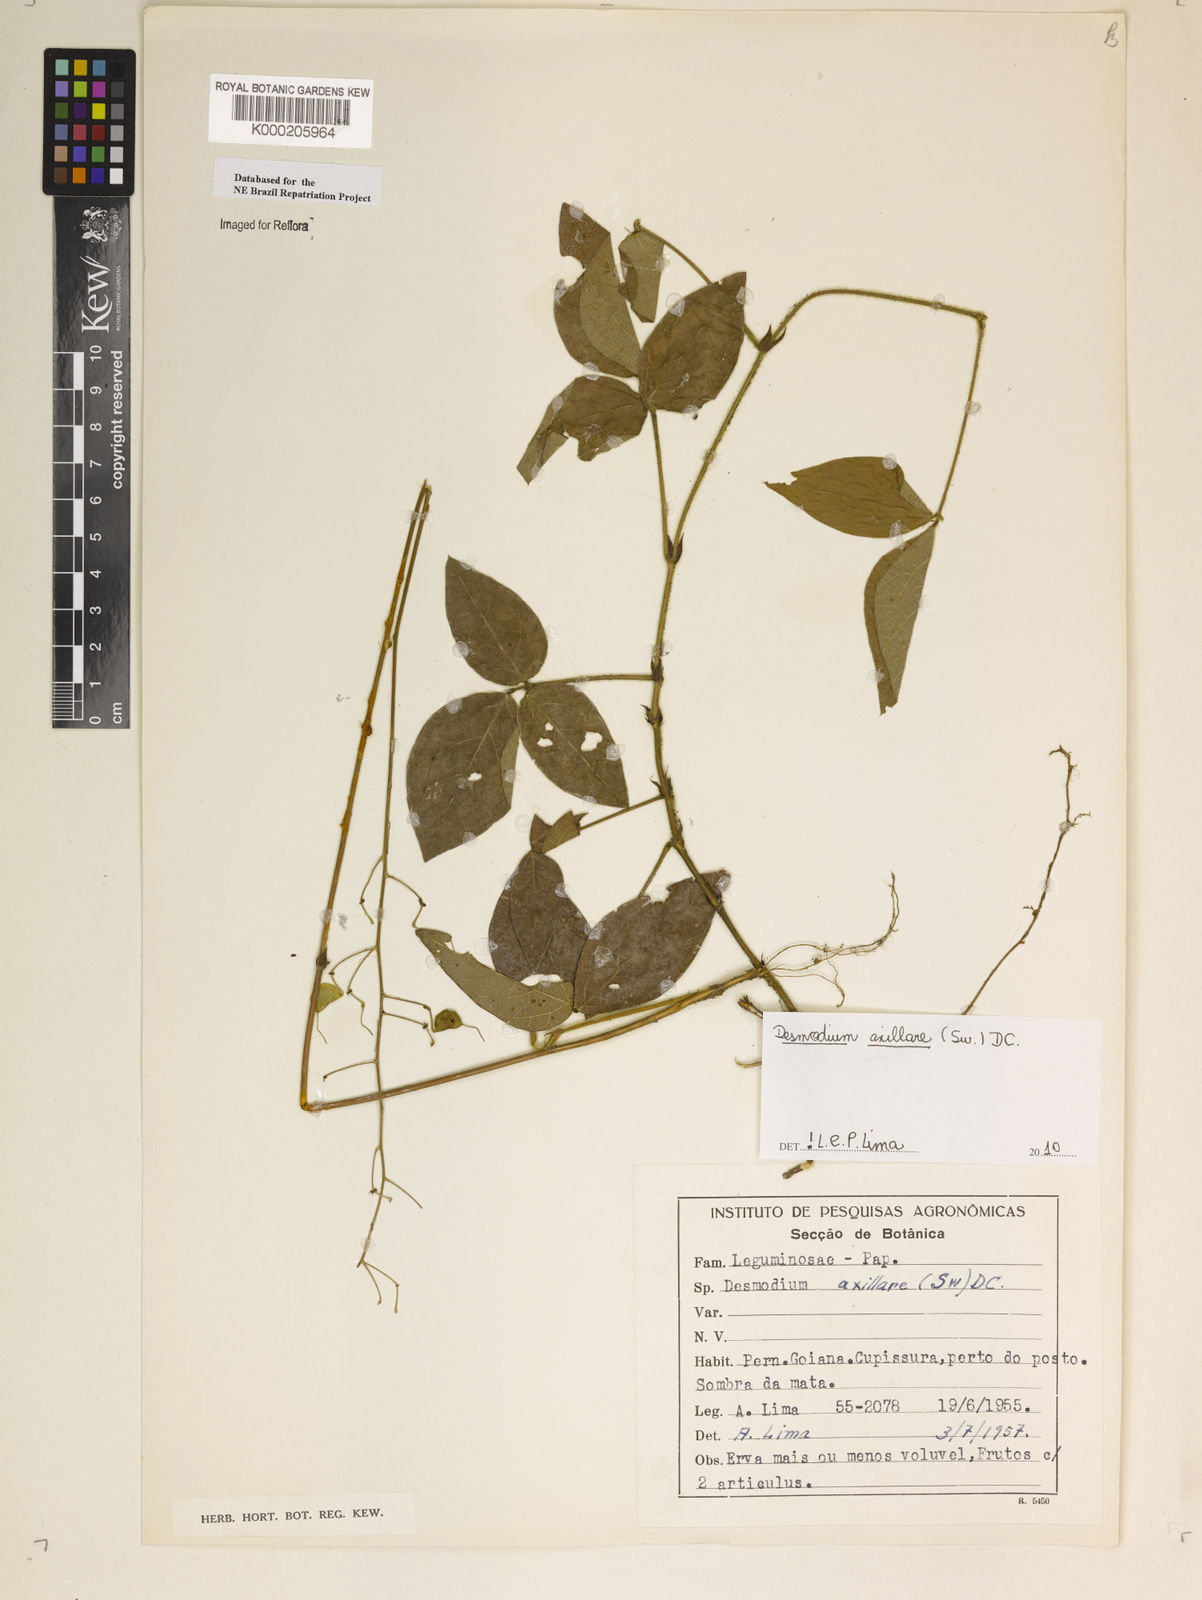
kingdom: Plantae
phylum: Tracheophyta
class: Magnoliopsida
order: Fabales
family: Fabaceae
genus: Desmodium
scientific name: Desmodium axillare
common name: Wire with
